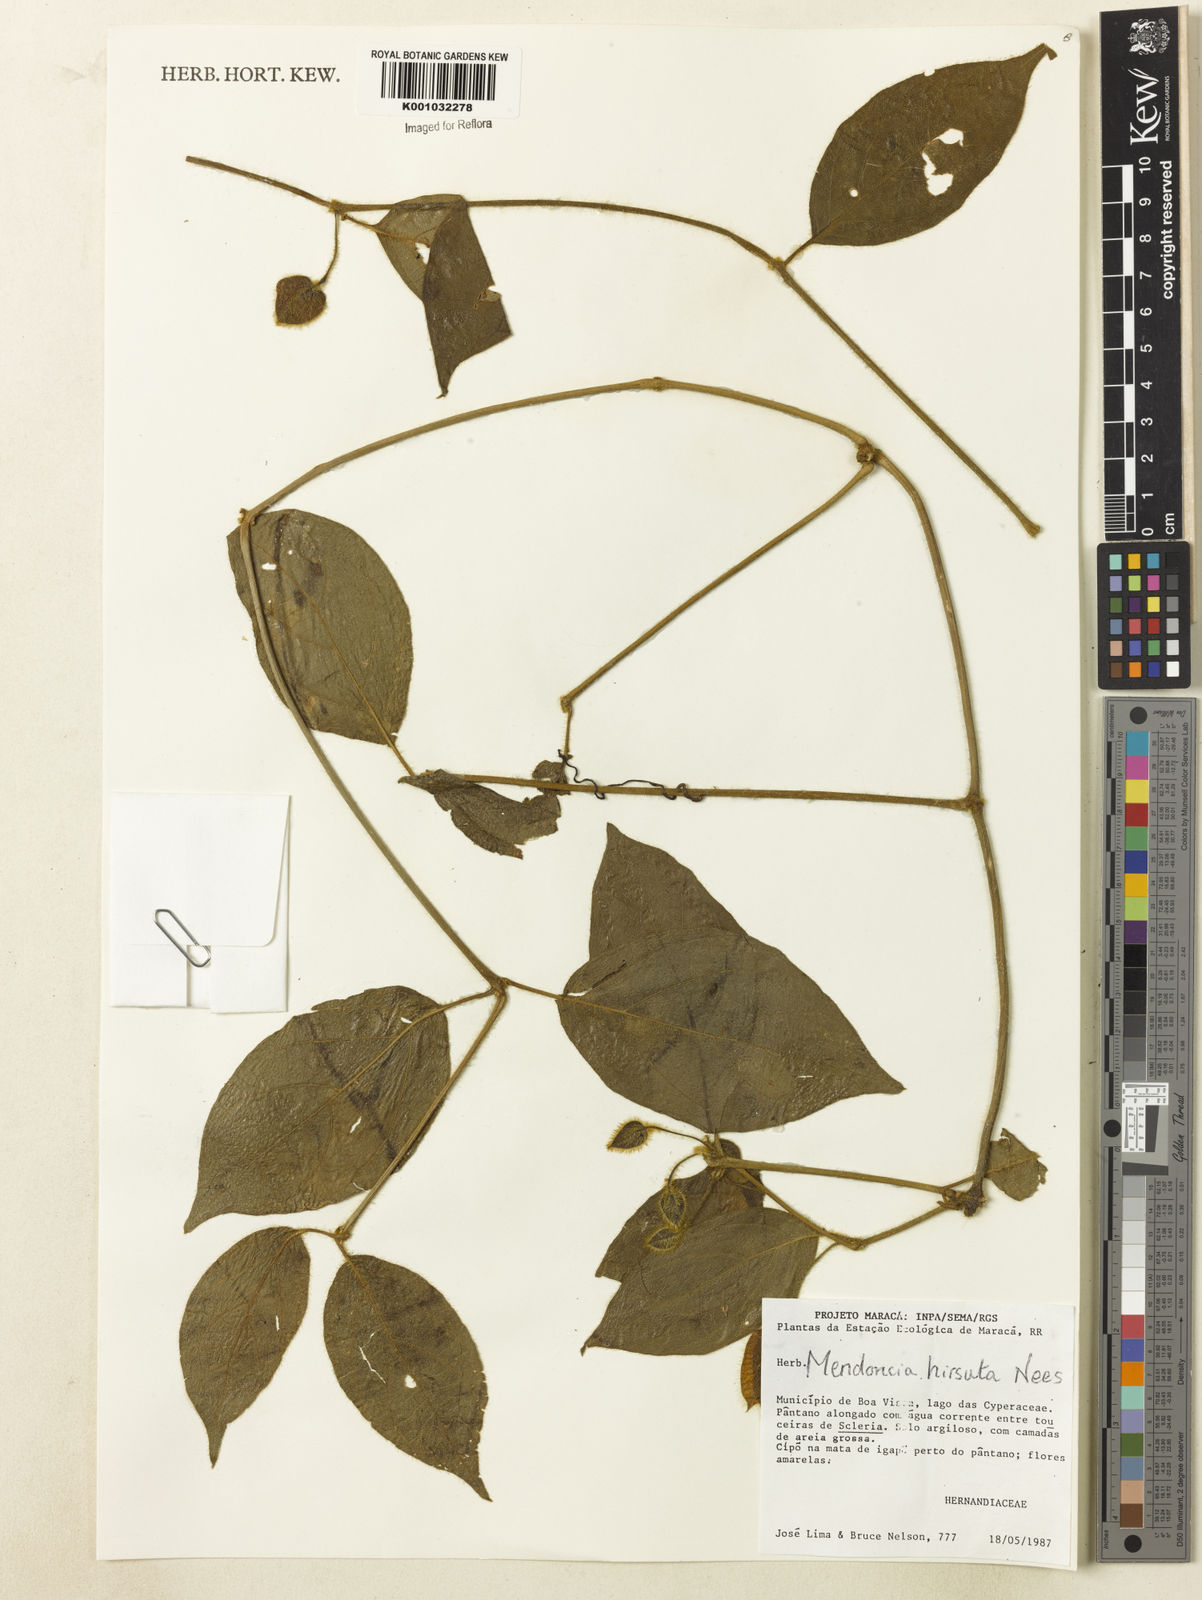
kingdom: Plantae
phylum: Tracheophyta
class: Magnoliopsida
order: Lamiales
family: Acanthaceae
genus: Mendoncia
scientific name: Mendoncia
